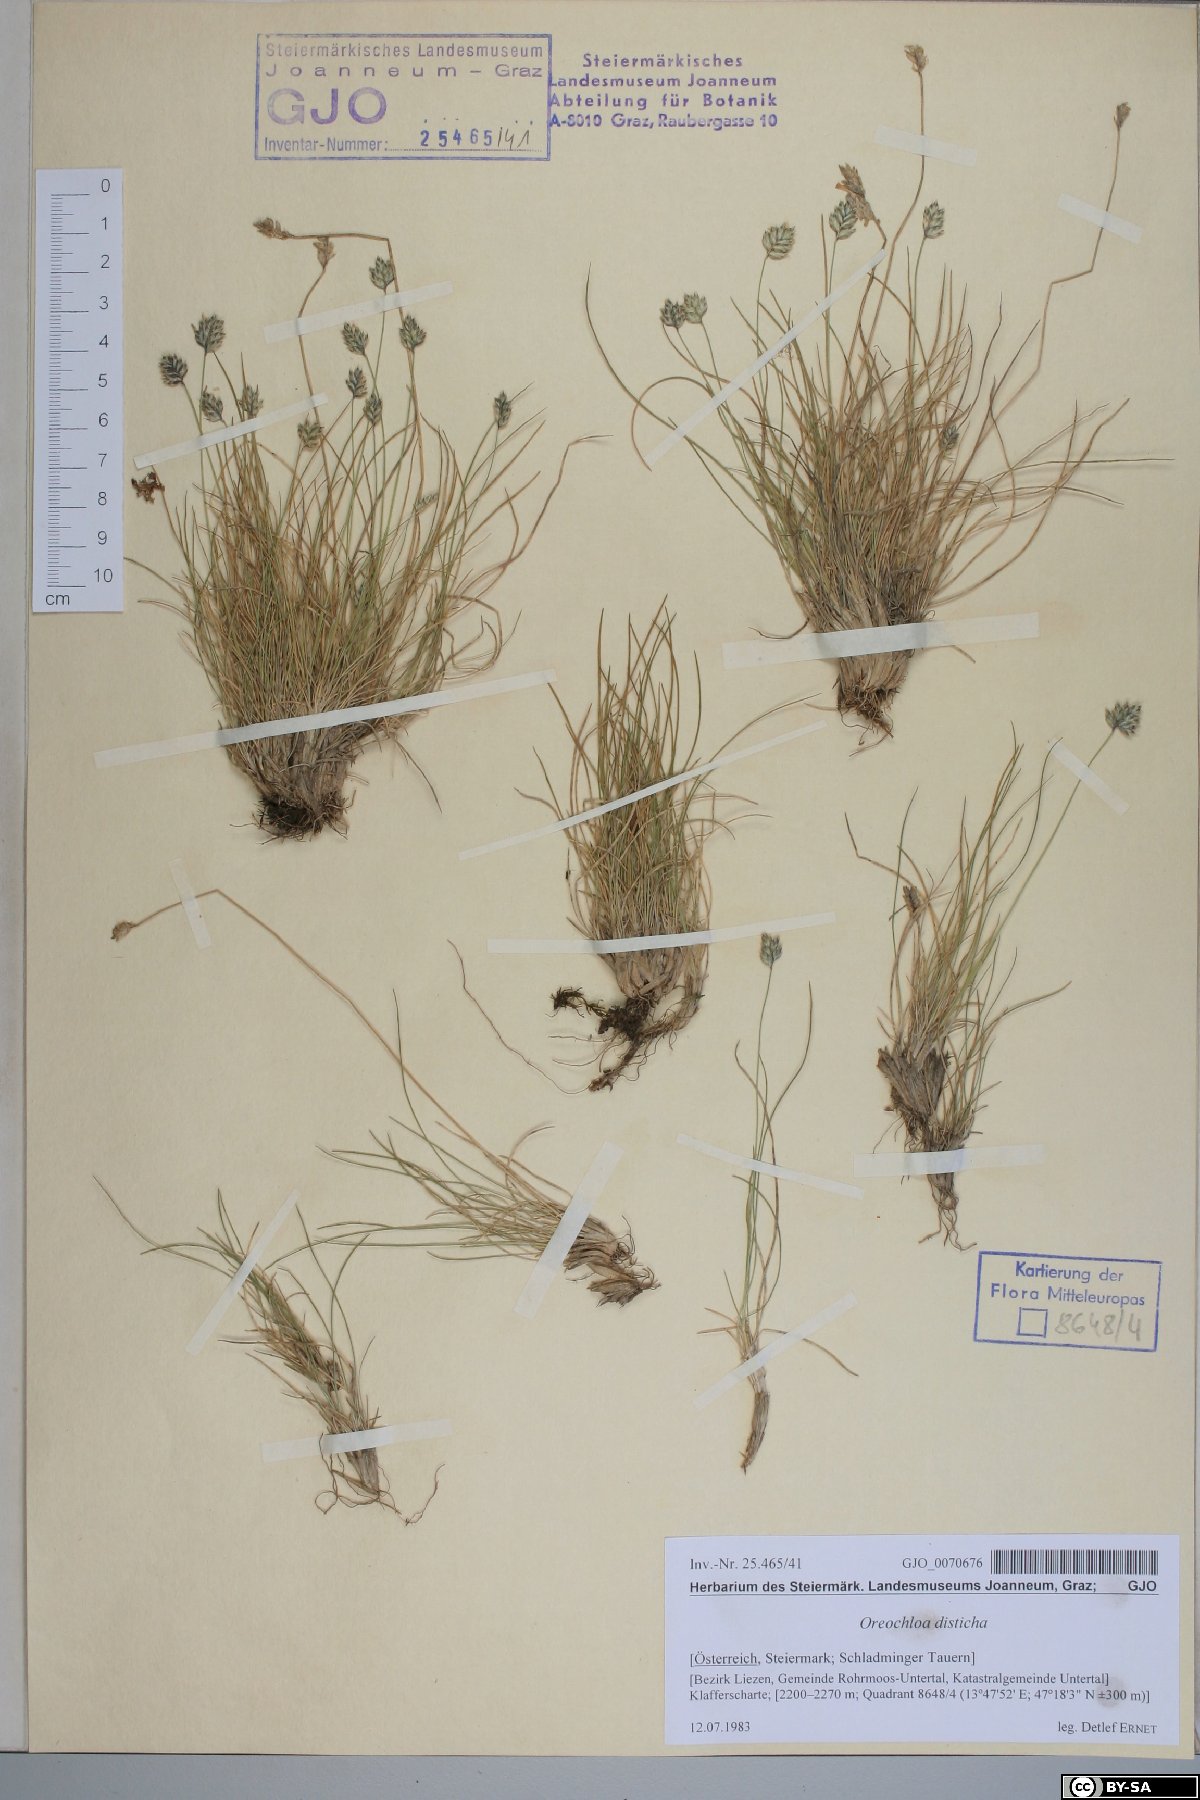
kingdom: Plantae
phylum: Tracheophyta
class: Liliopsida
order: Poales
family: Poaceae
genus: Oreochloa
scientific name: Oreochloa disticha
